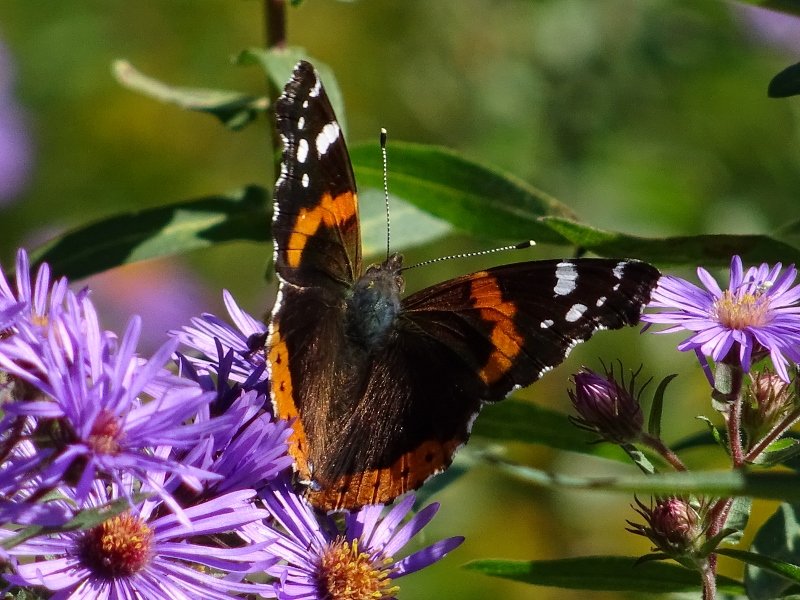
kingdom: Animalia
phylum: Arthropoda
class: Insecta
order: Lepidoptera
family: Nymphalidae
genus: Vanessa
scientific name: Vanessa atalanta
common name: Red Admiral
